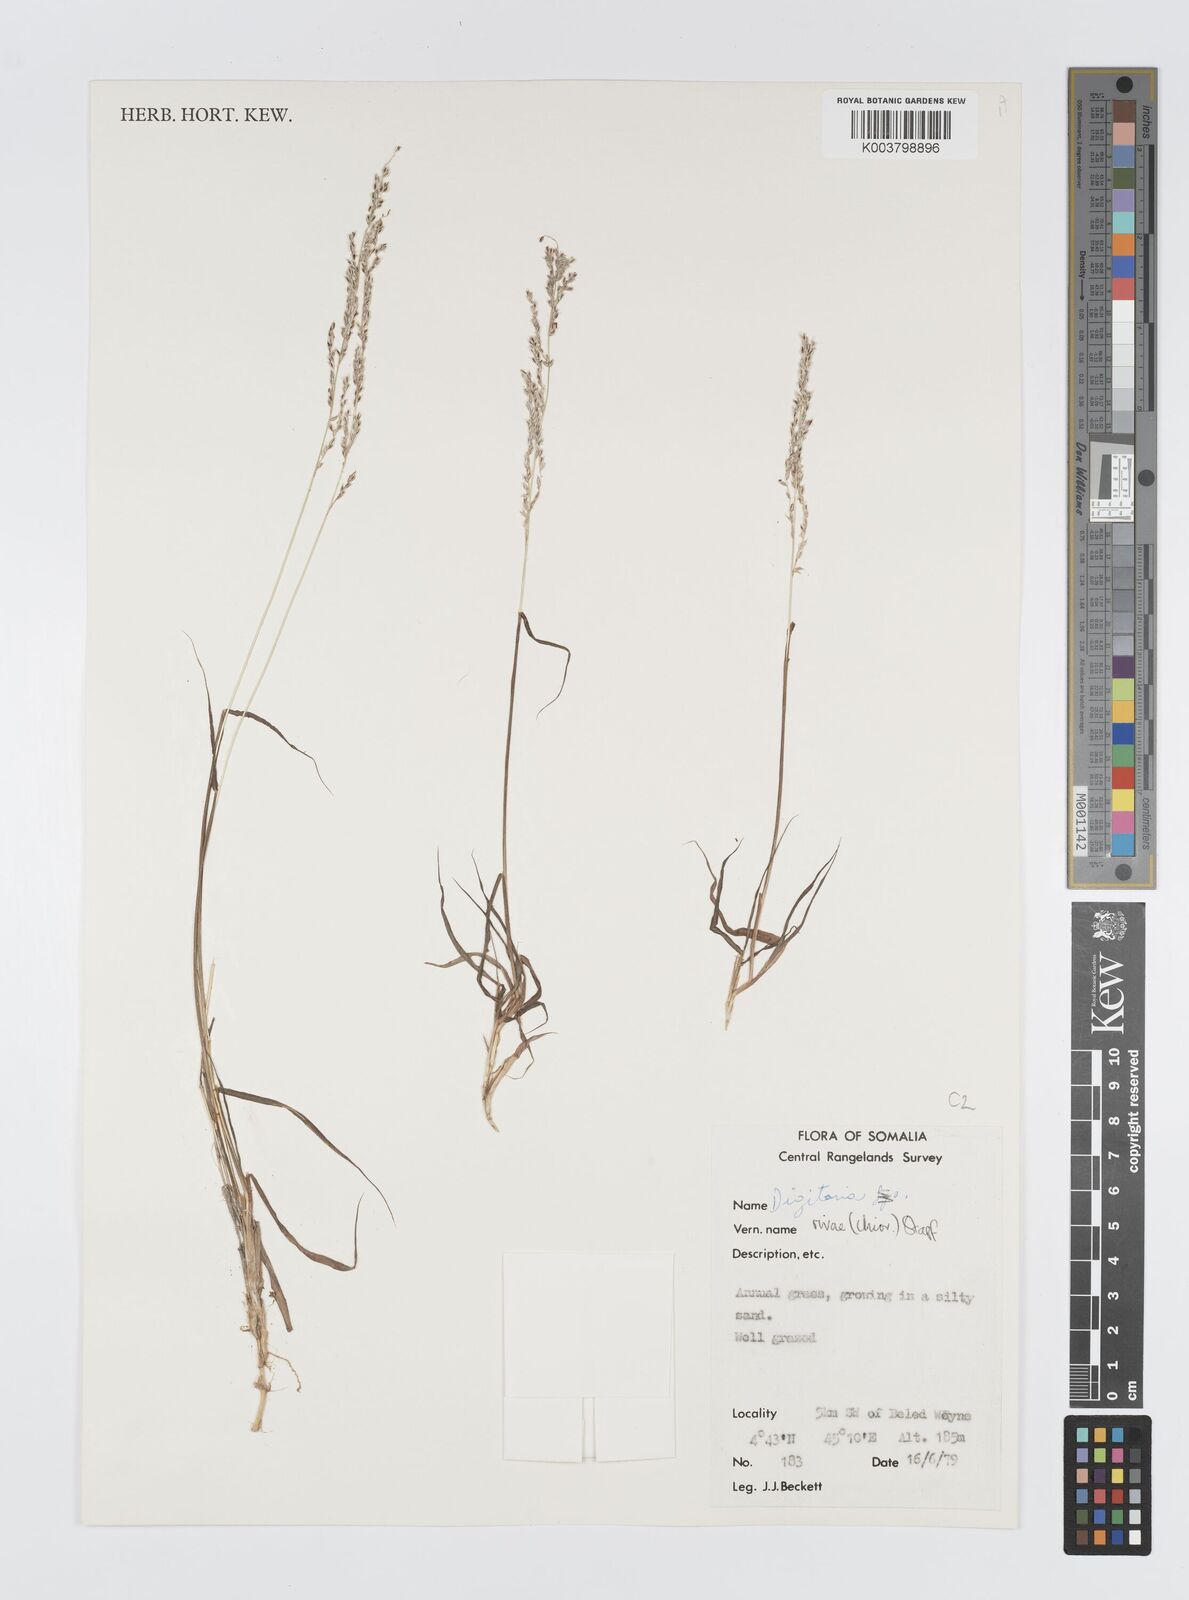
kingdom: Plantae
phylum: Tracheophyta
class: Liliopsida
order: Poales
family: Poaceae
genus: Digitaria
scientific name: Digitaria rivae
